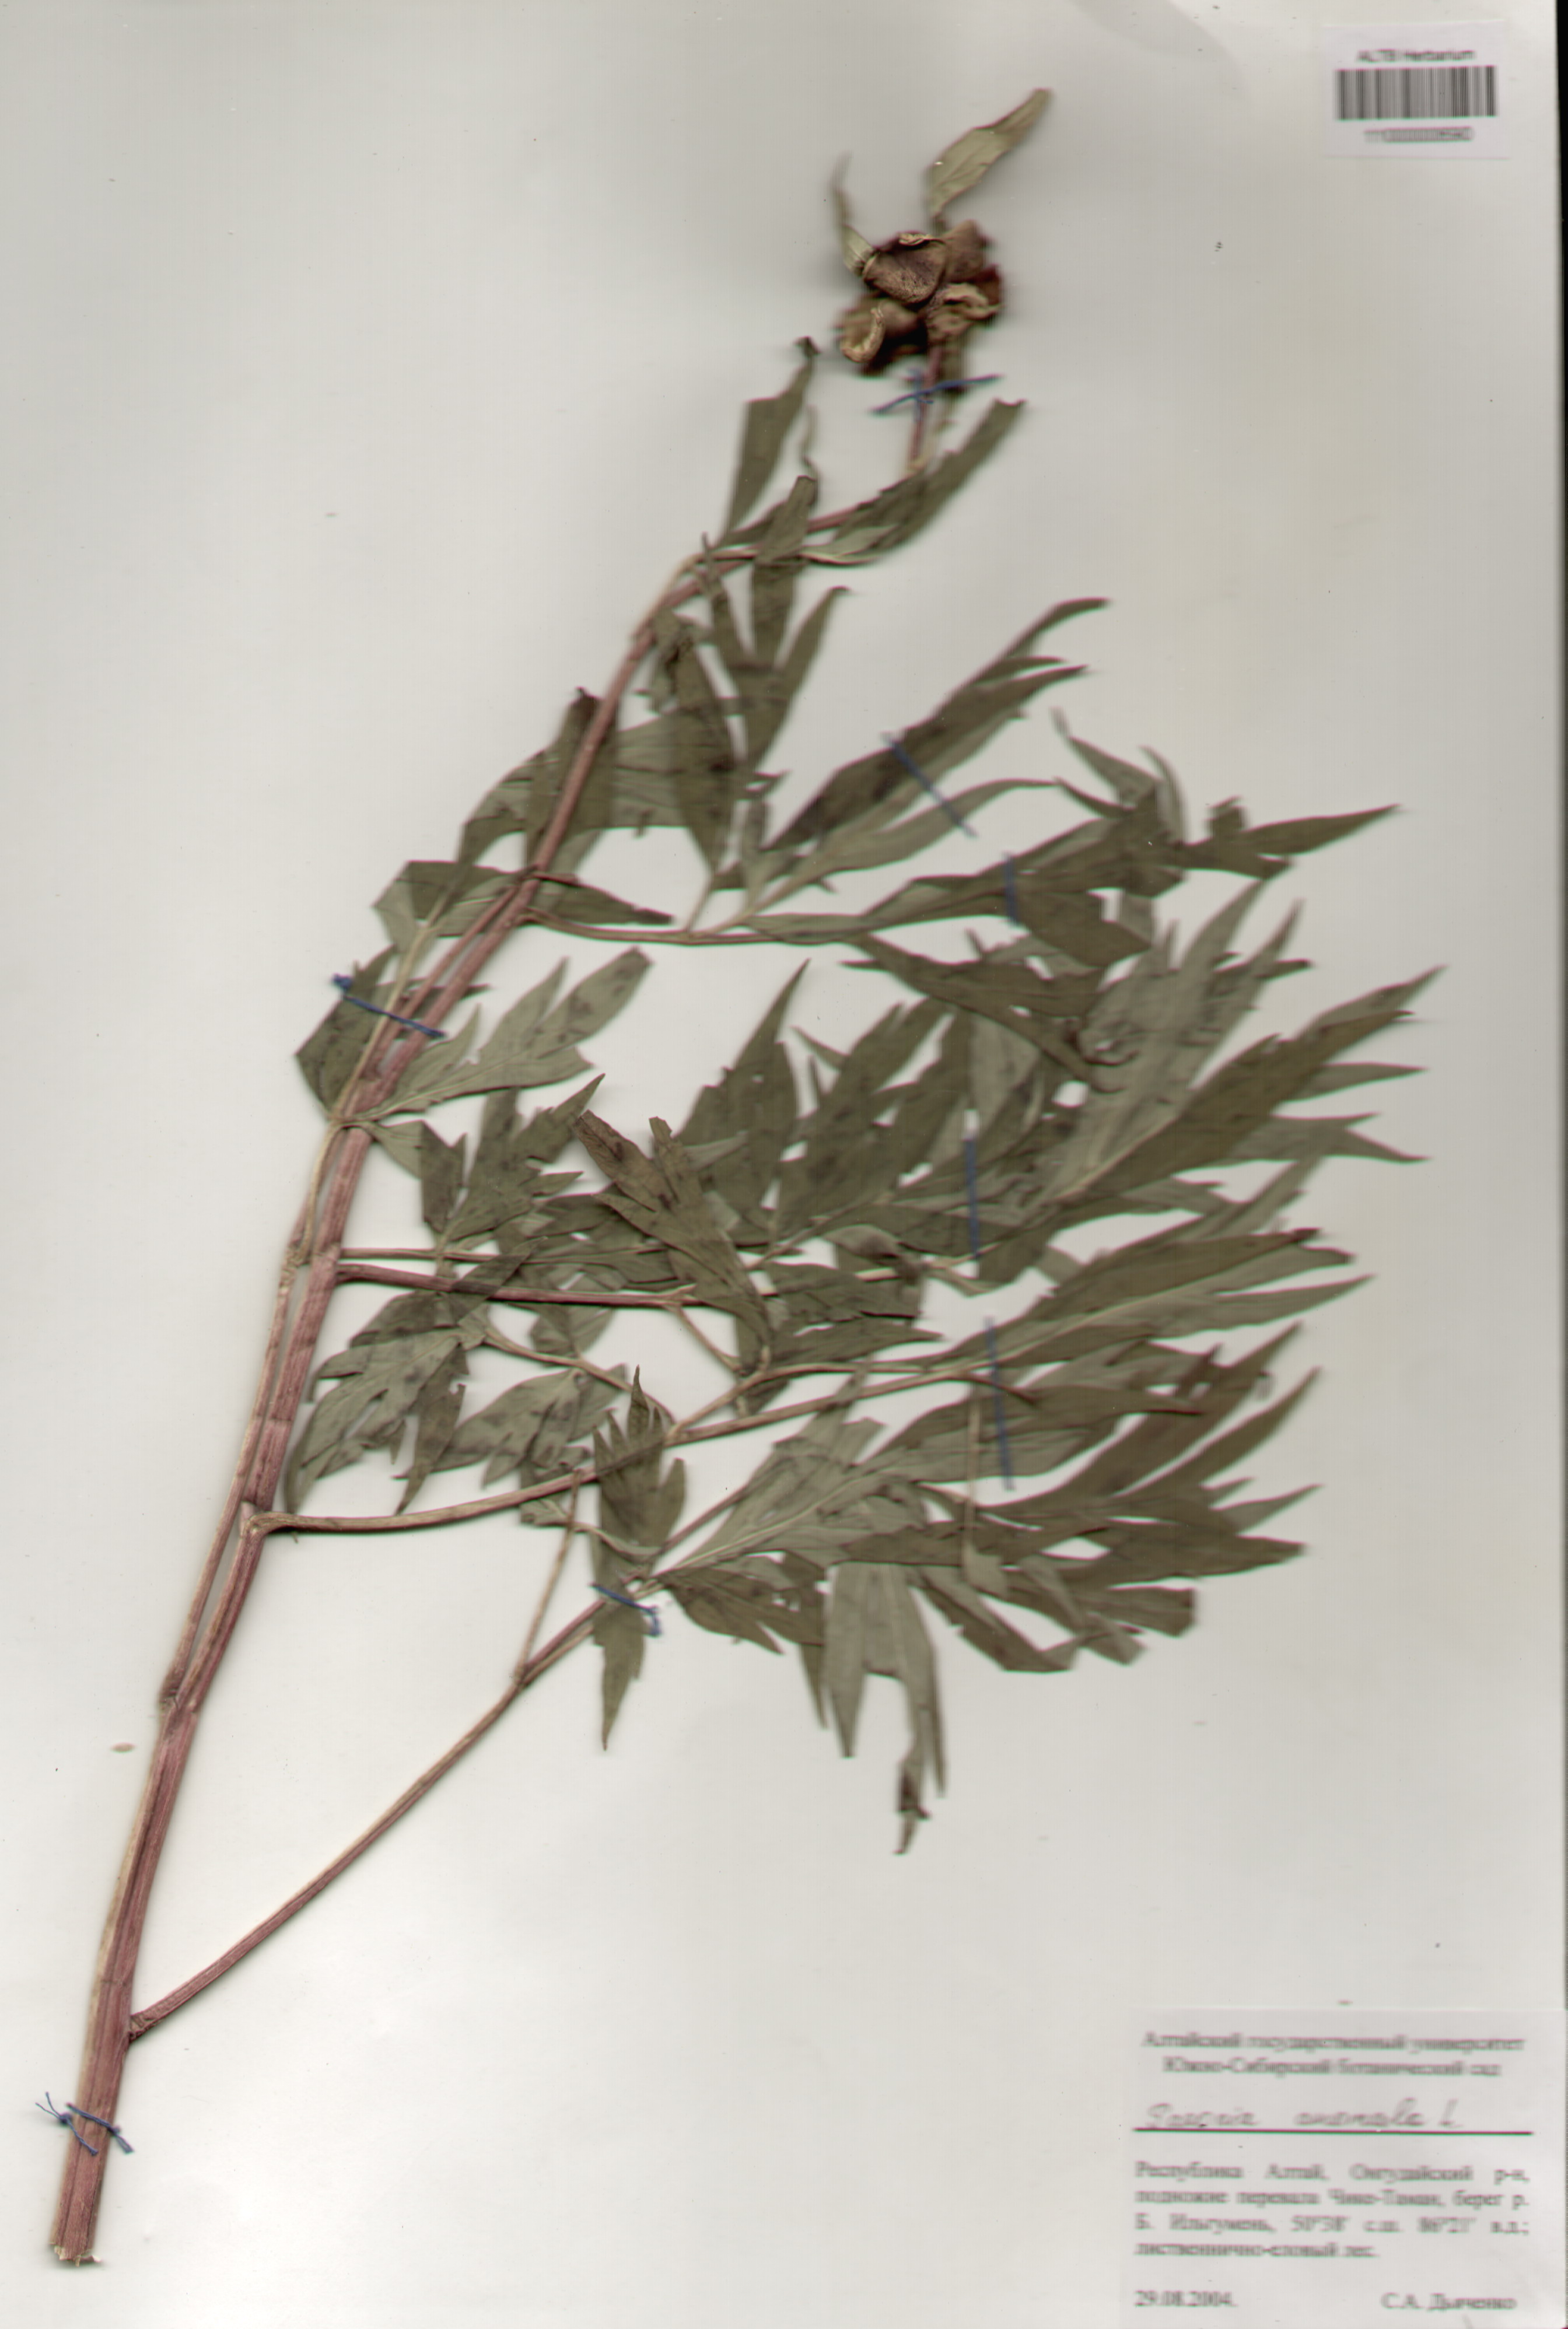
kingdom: Plantae
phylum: Tracheophyta
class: Magnoliopsida
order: Saxifragales
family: Paeoniaceae
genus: Paeonia
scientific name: Paeonia anomala
